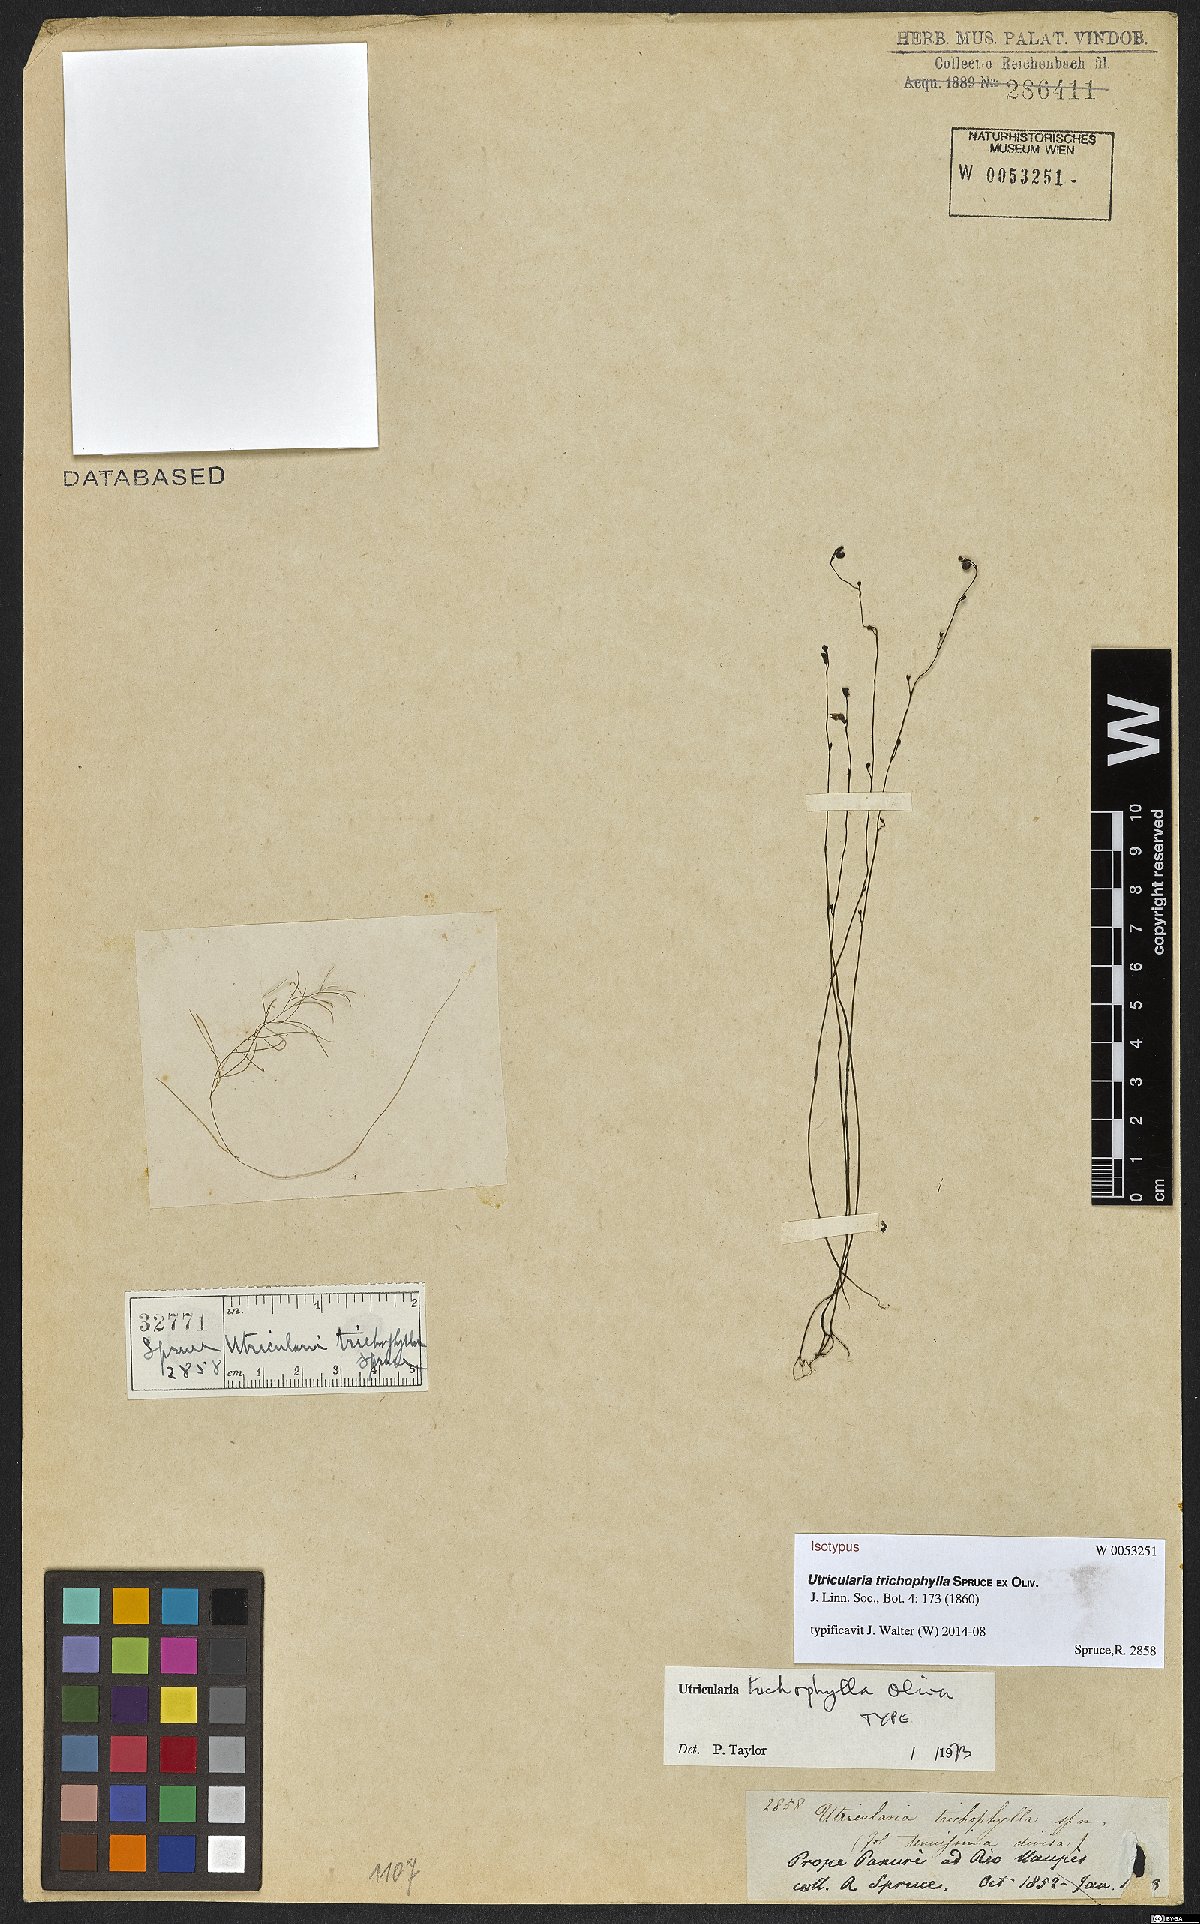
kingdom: Plantae
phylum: Tracheophyta
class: Magnoliopsida
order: Lamiales
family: Lentibulariaceae
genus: Utricularia
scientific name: Utricularia trichophylla
